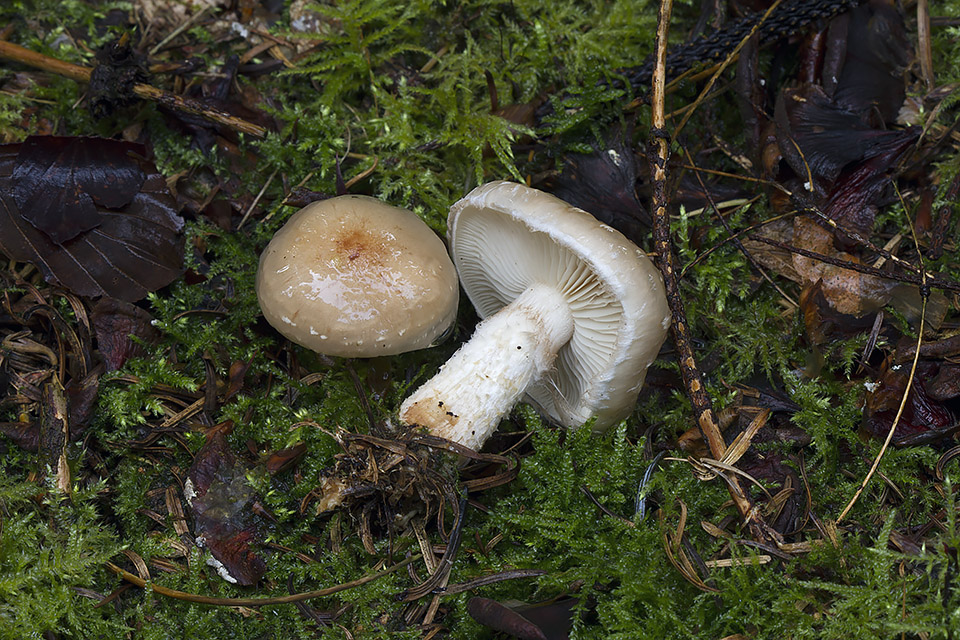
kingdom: Fungi
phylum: Basidiomycota
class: Agaricomycetes
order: Agaricales
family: Strophariaceae
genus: Pholiota
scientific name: Pholiota lenta
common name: løv-skælhat
